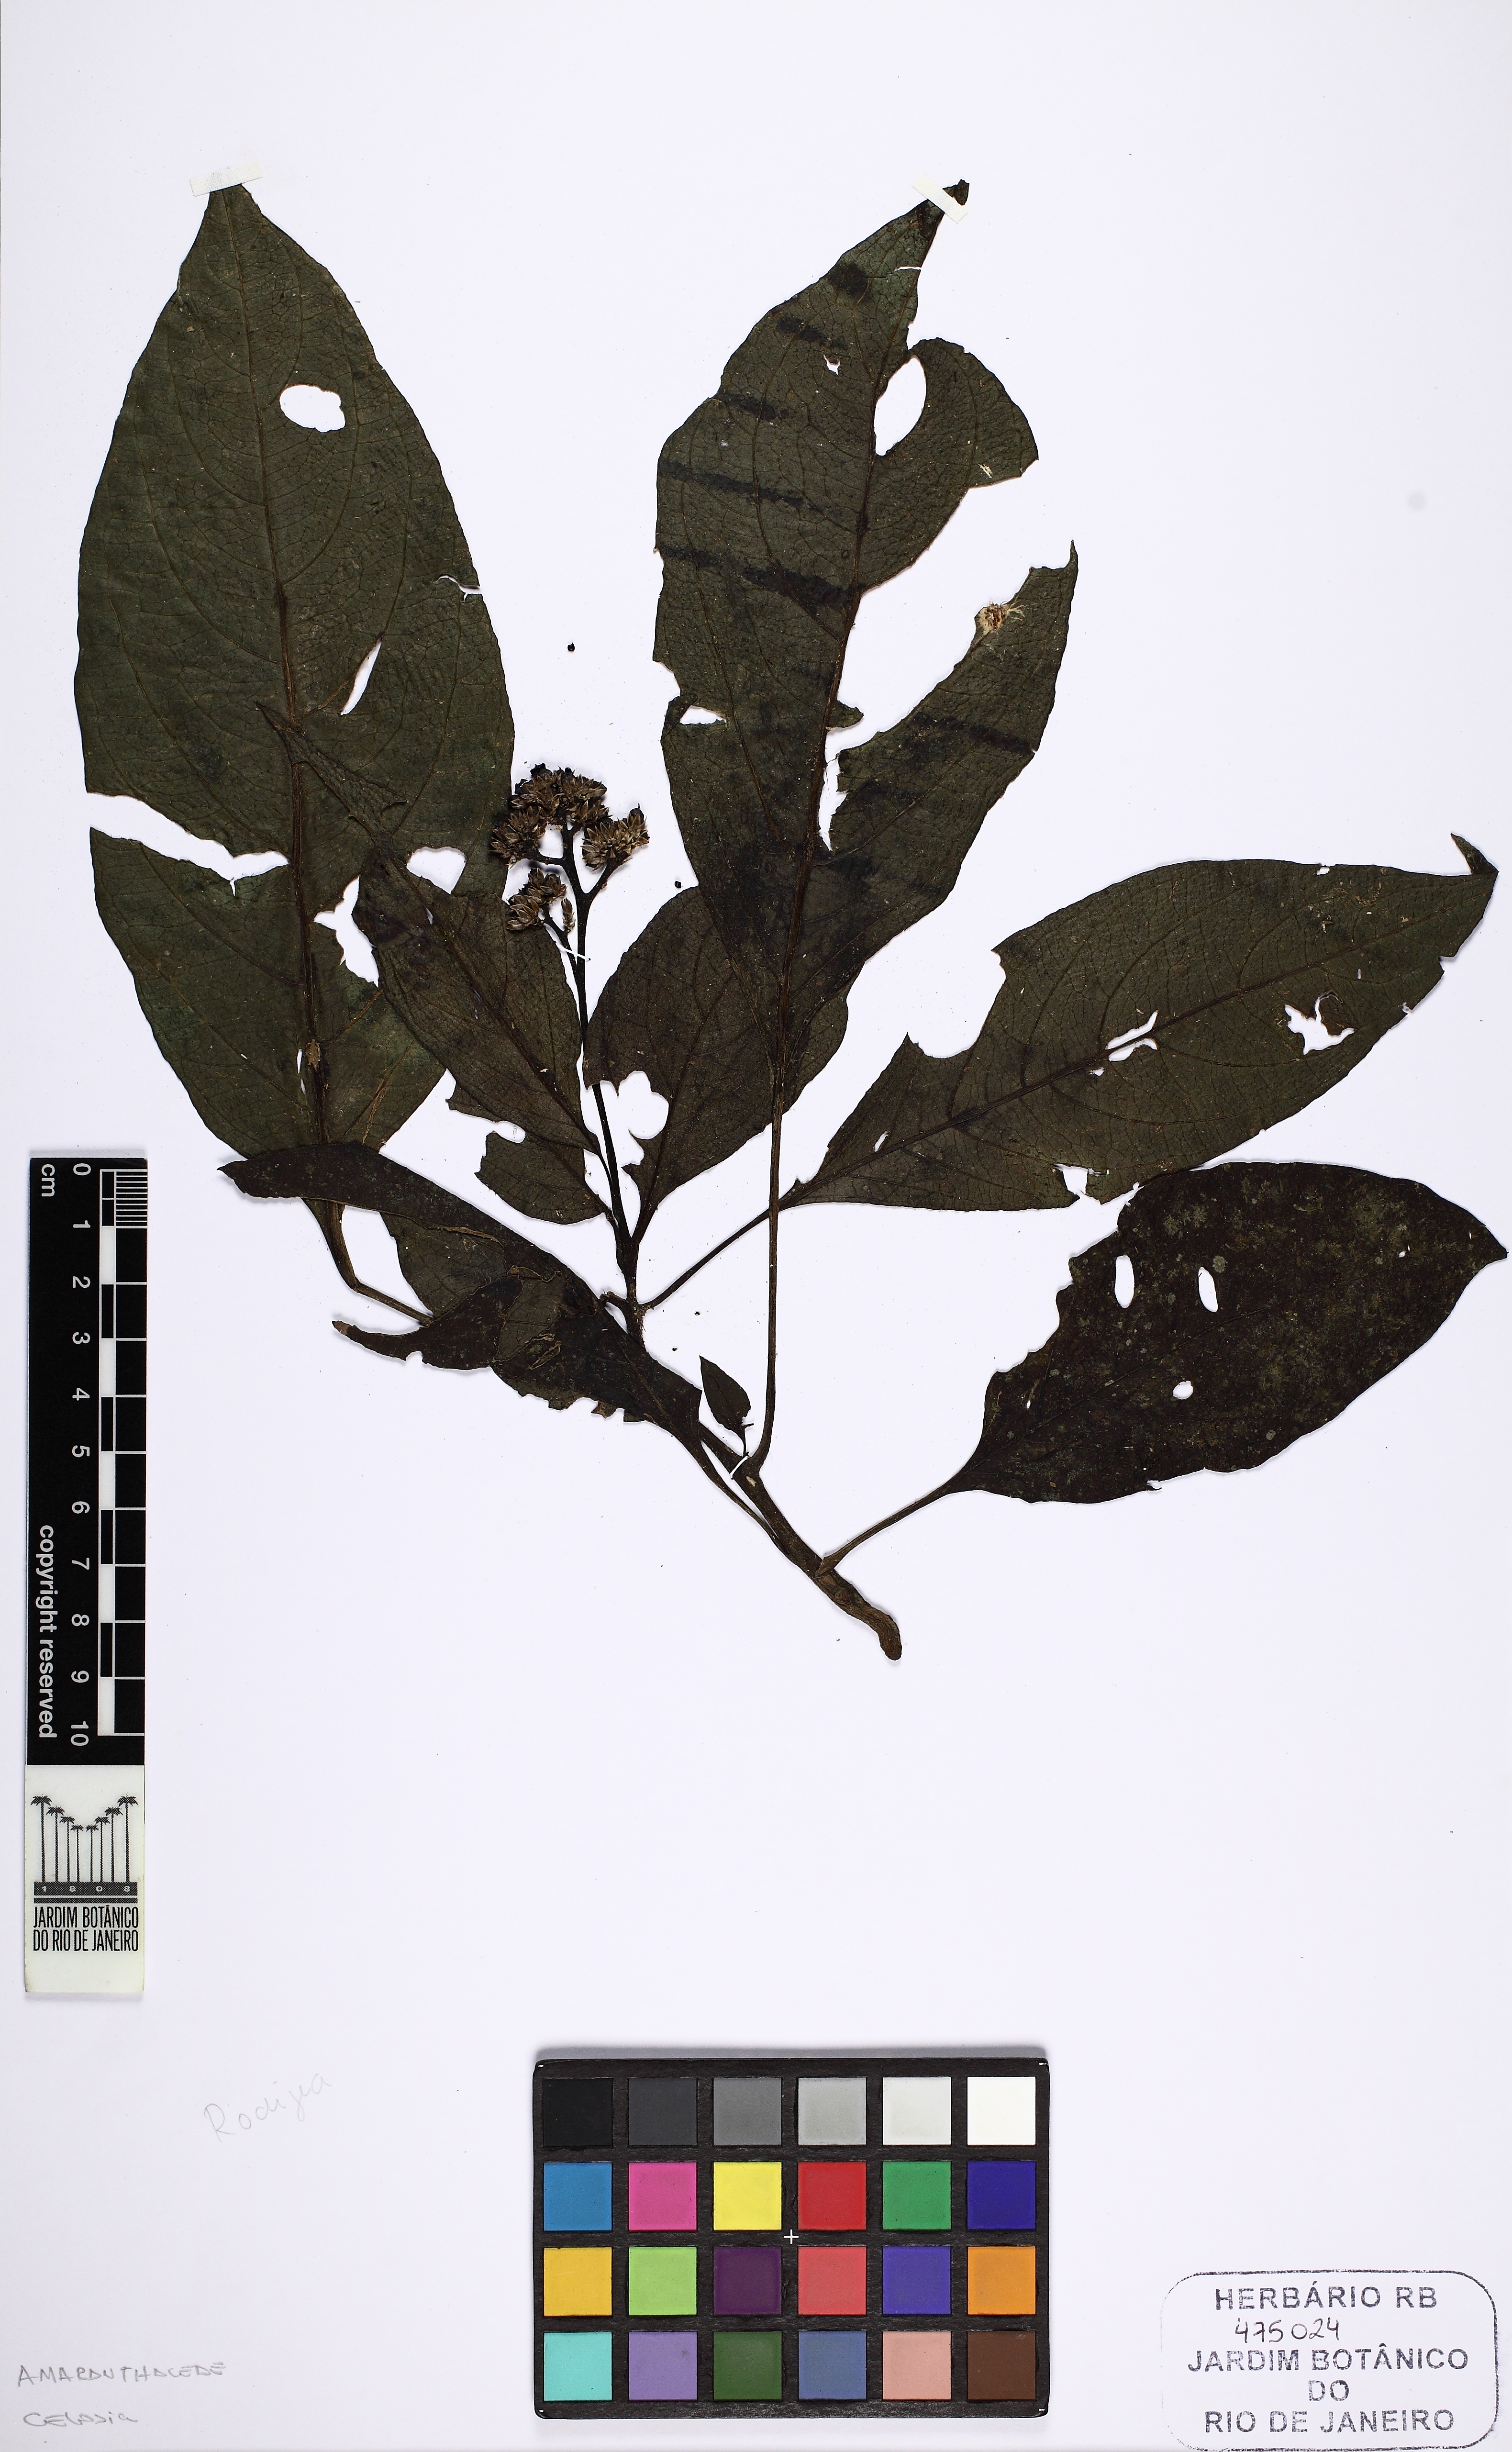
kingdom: Plantae
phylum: Tracheophyta
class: Magnoliopsida
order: Caryophyllales
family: Amaranthaceae
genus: Celosia
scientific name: Celosia
